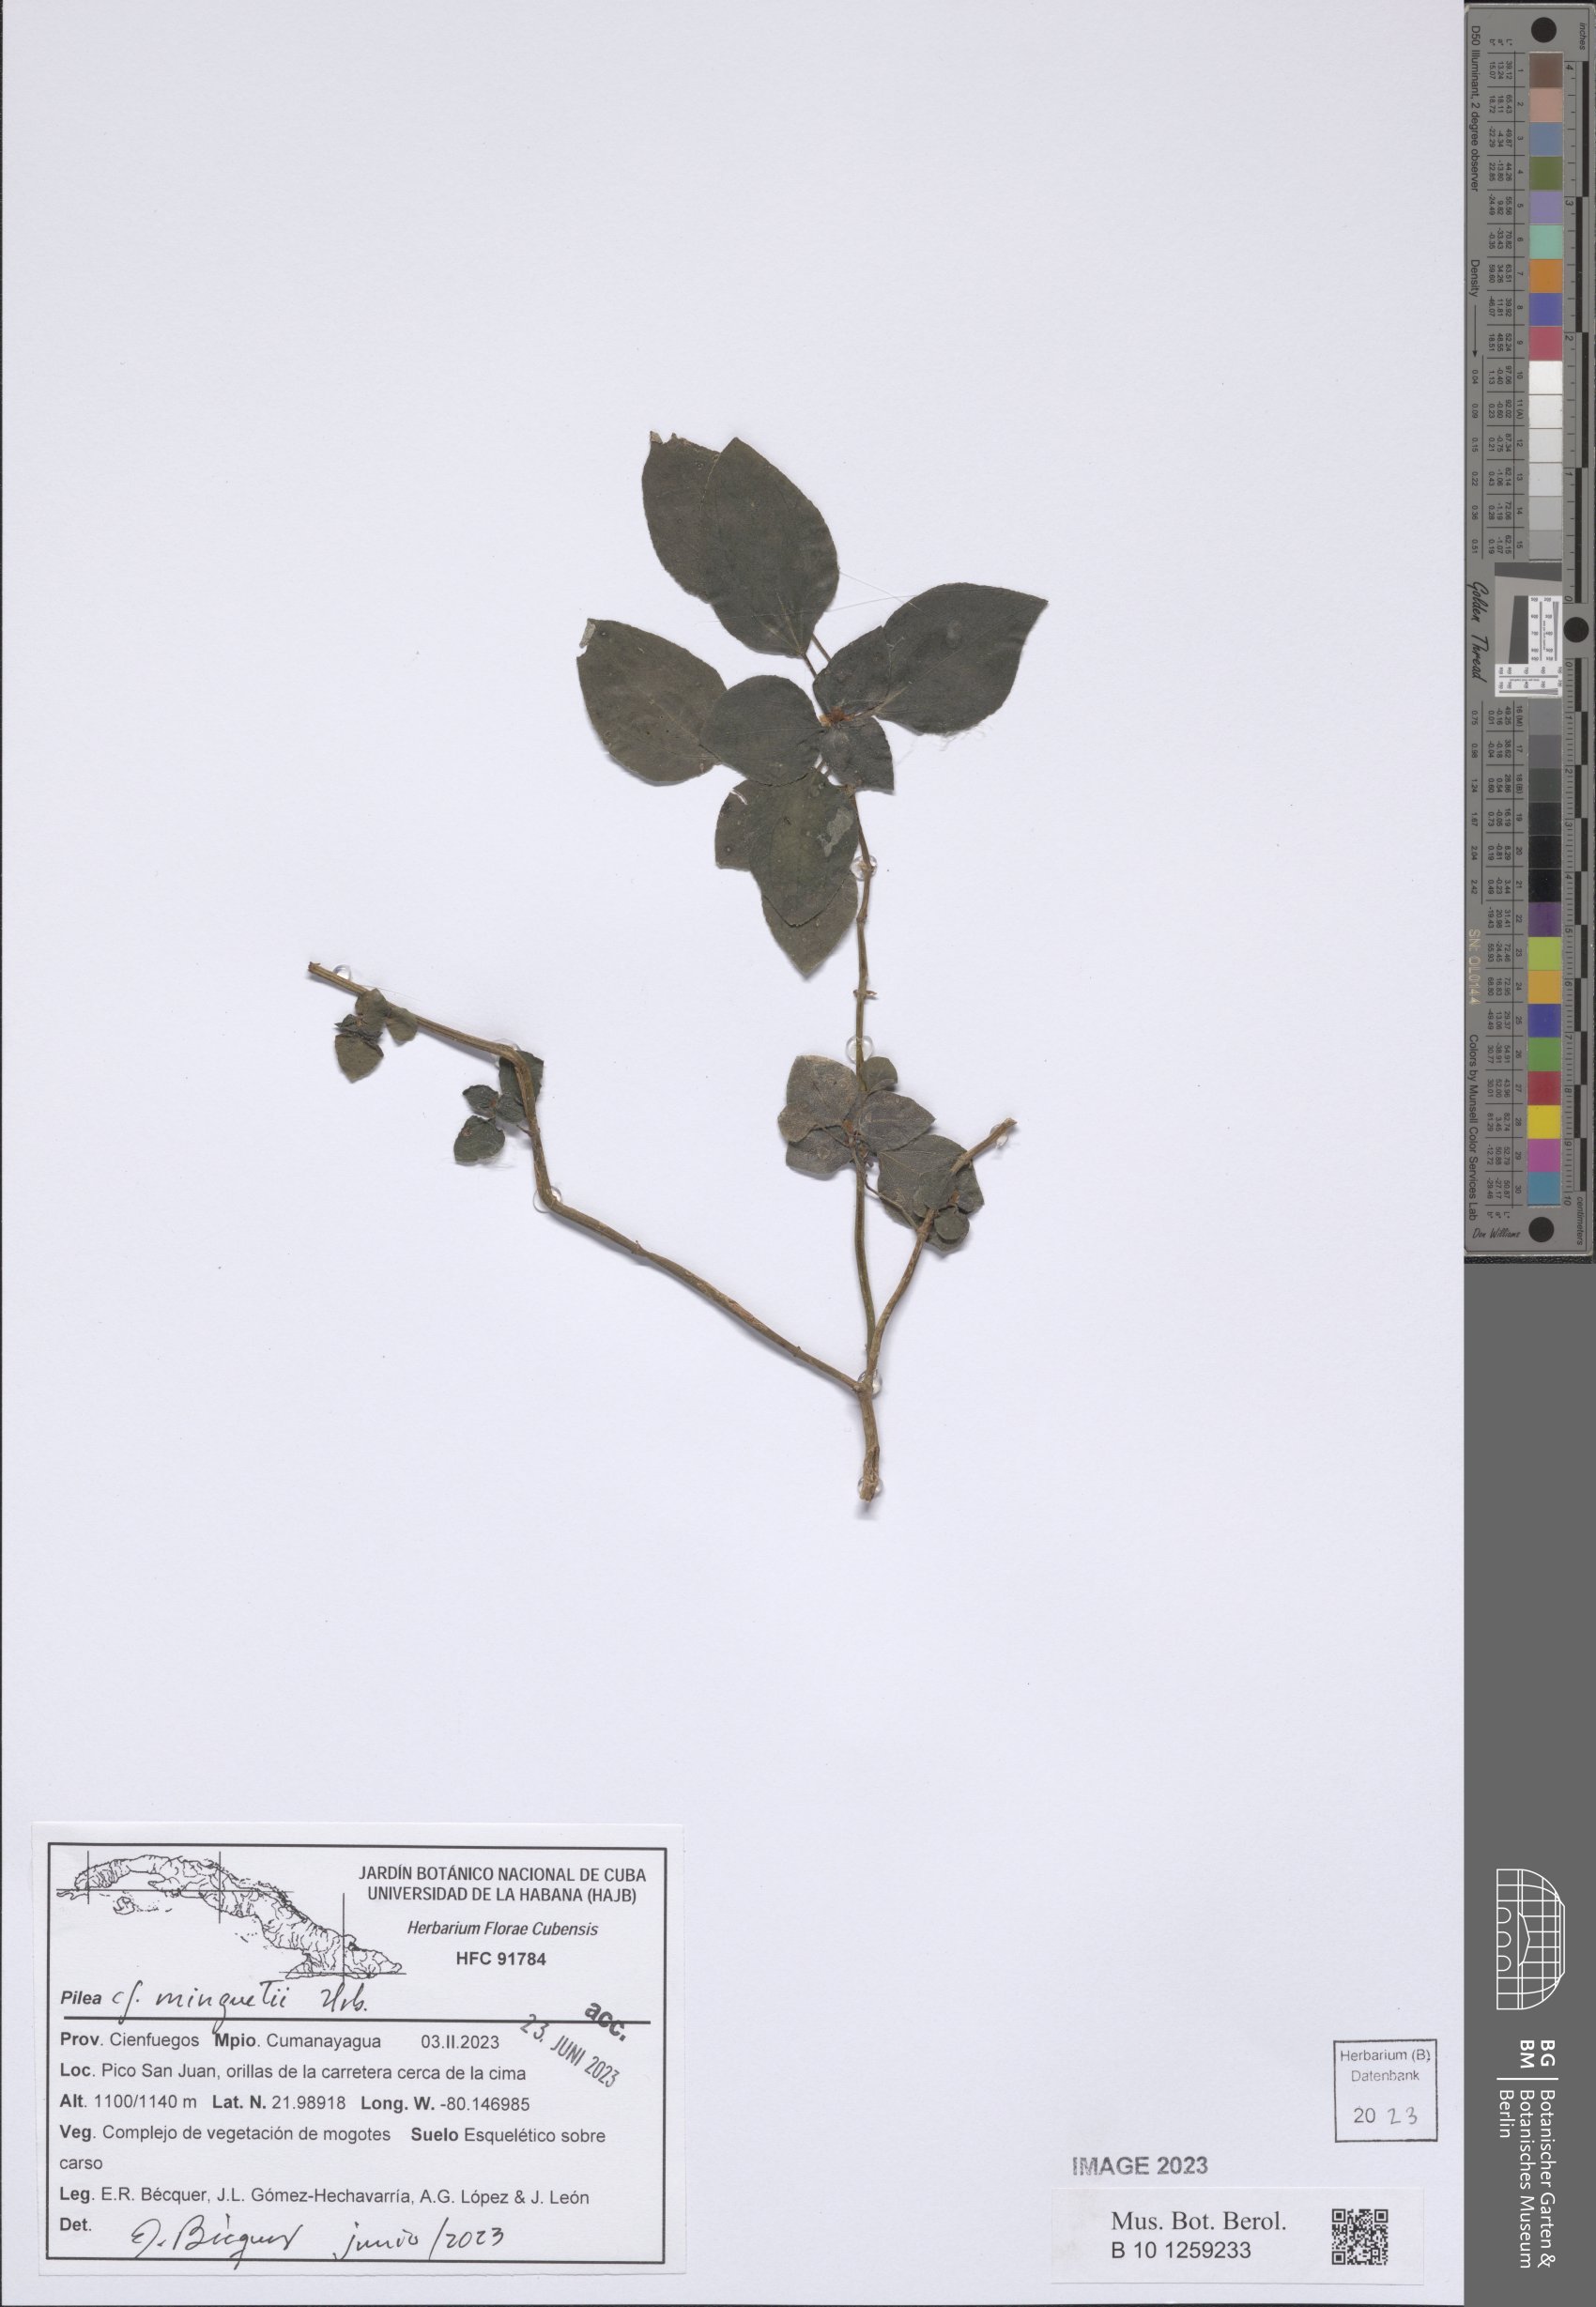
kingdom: Plantae
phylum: Tracheophyta
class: Magnoliopsida
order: Rosales
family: Urticaceae
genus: Pilea
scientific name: Pilea minguetii
